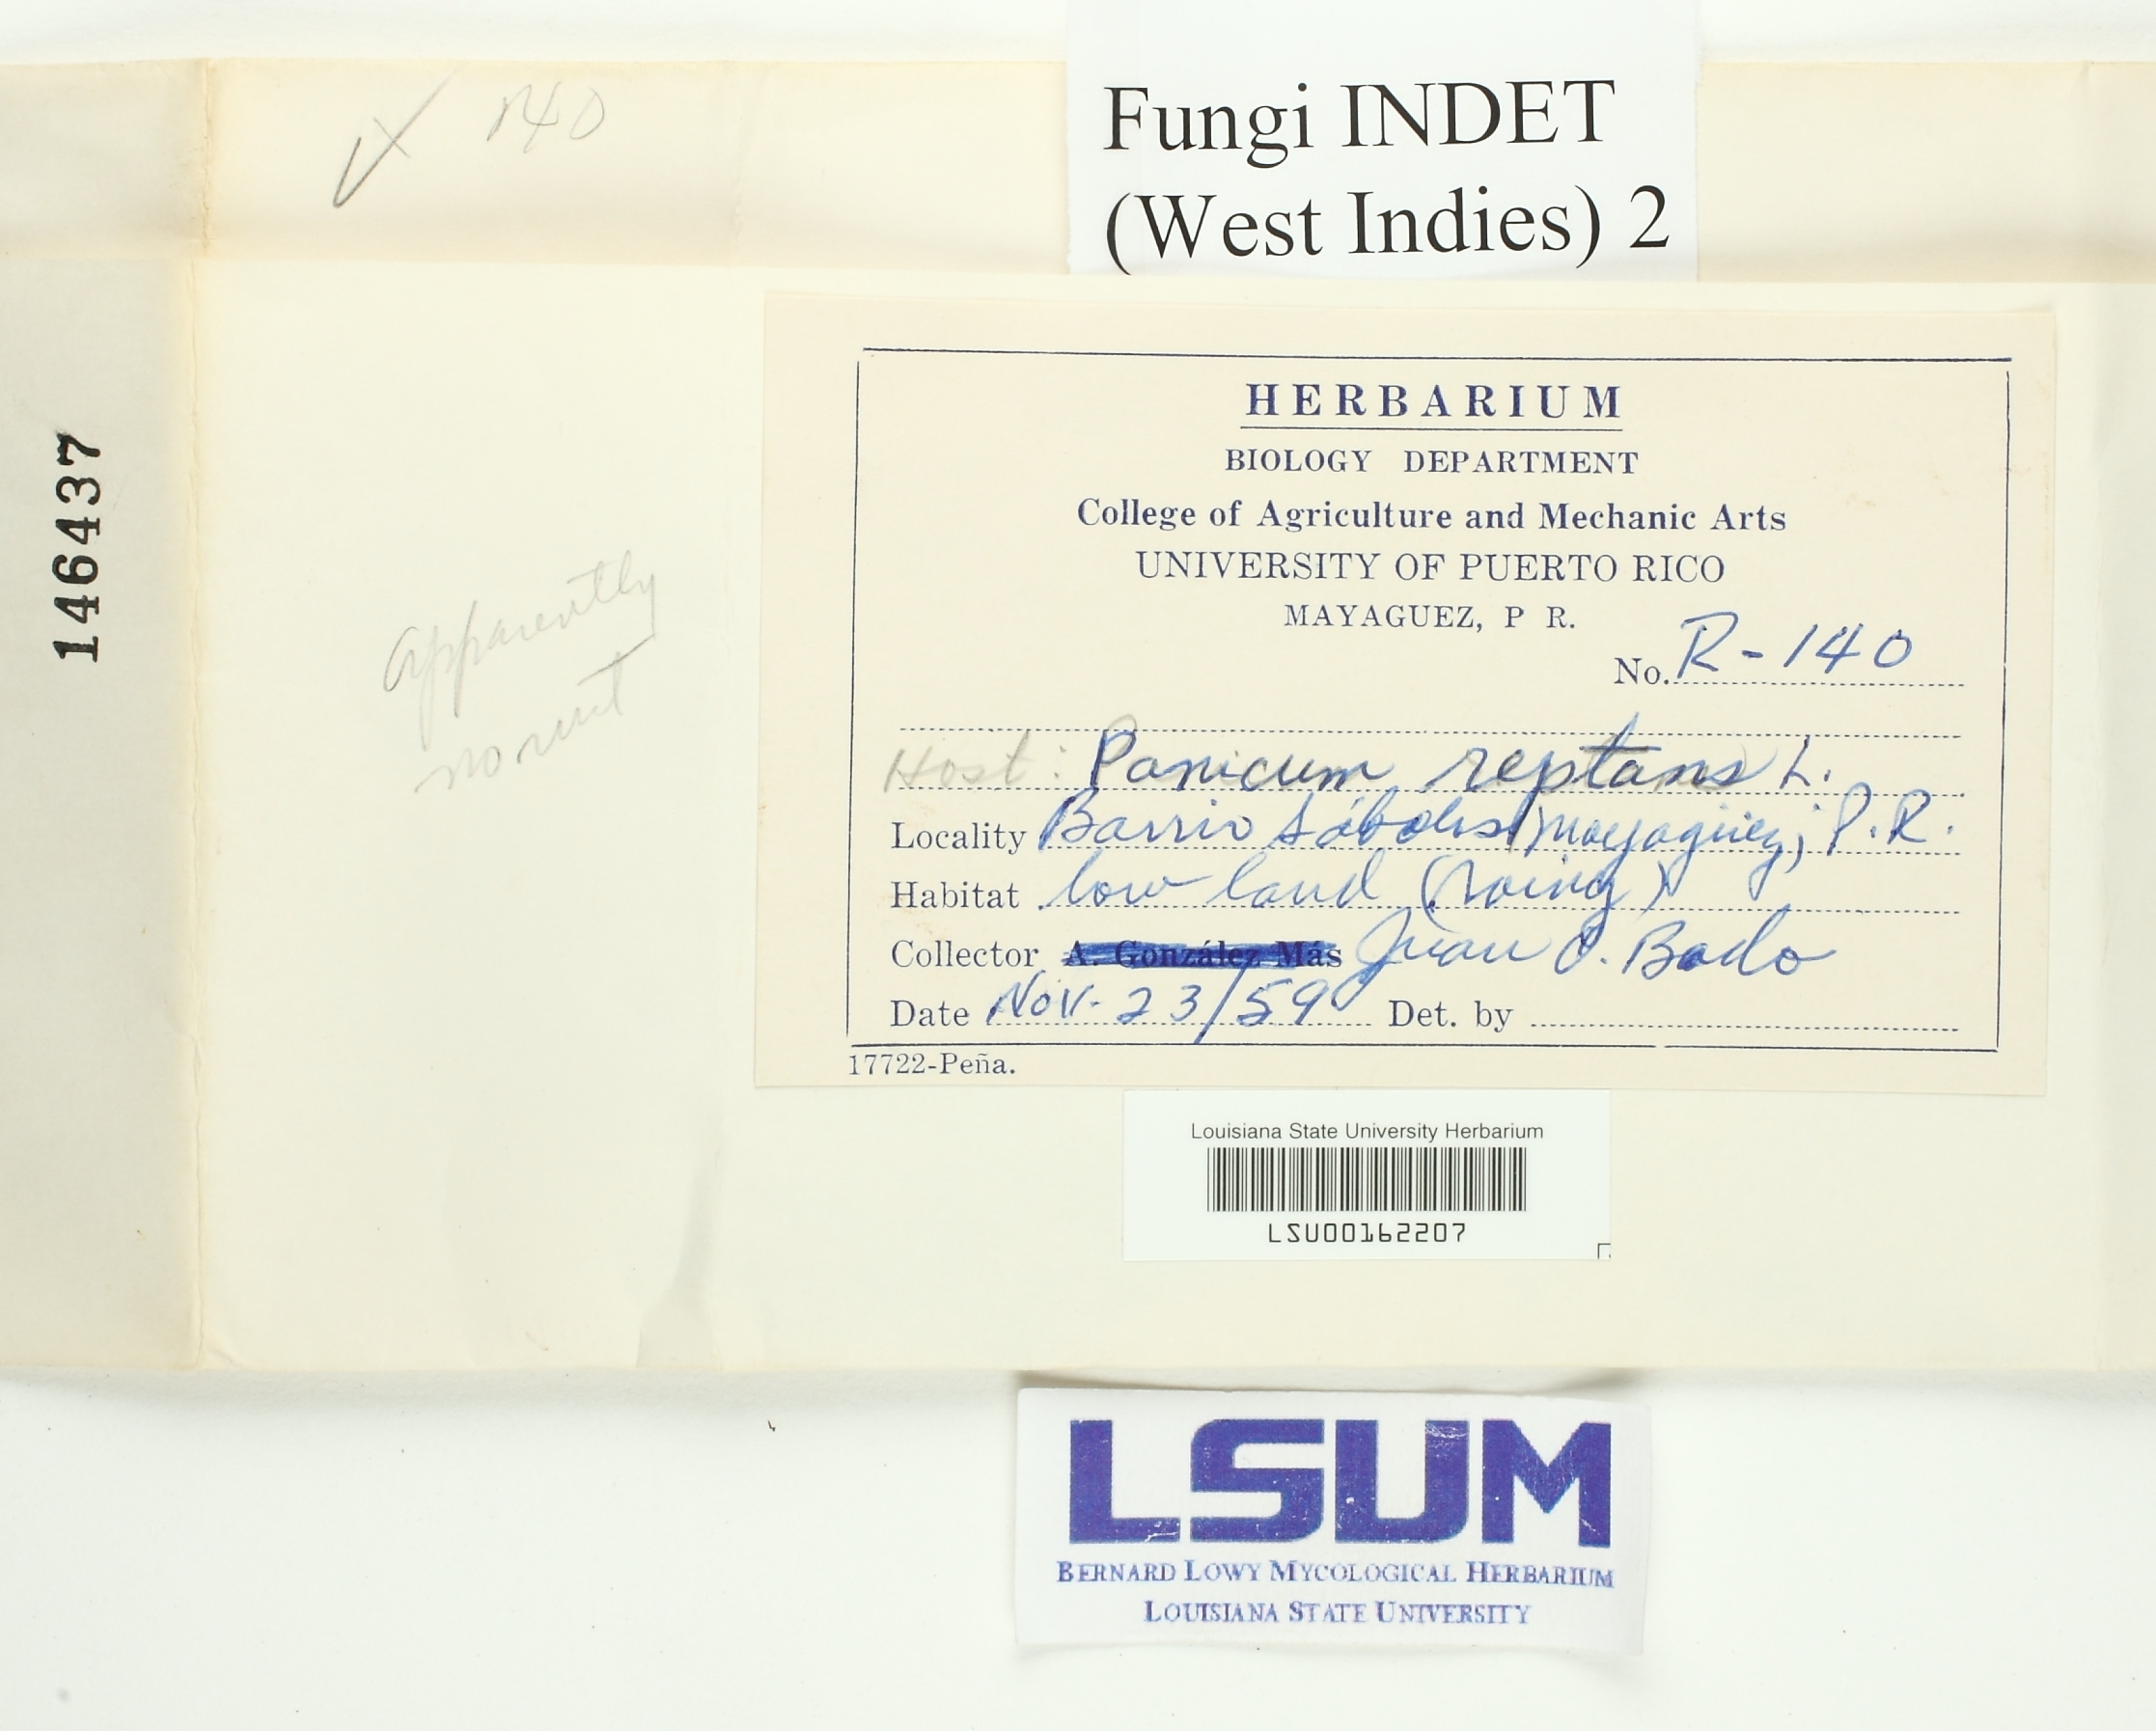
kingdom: Fungi
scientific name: Fungi
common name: Fungi
